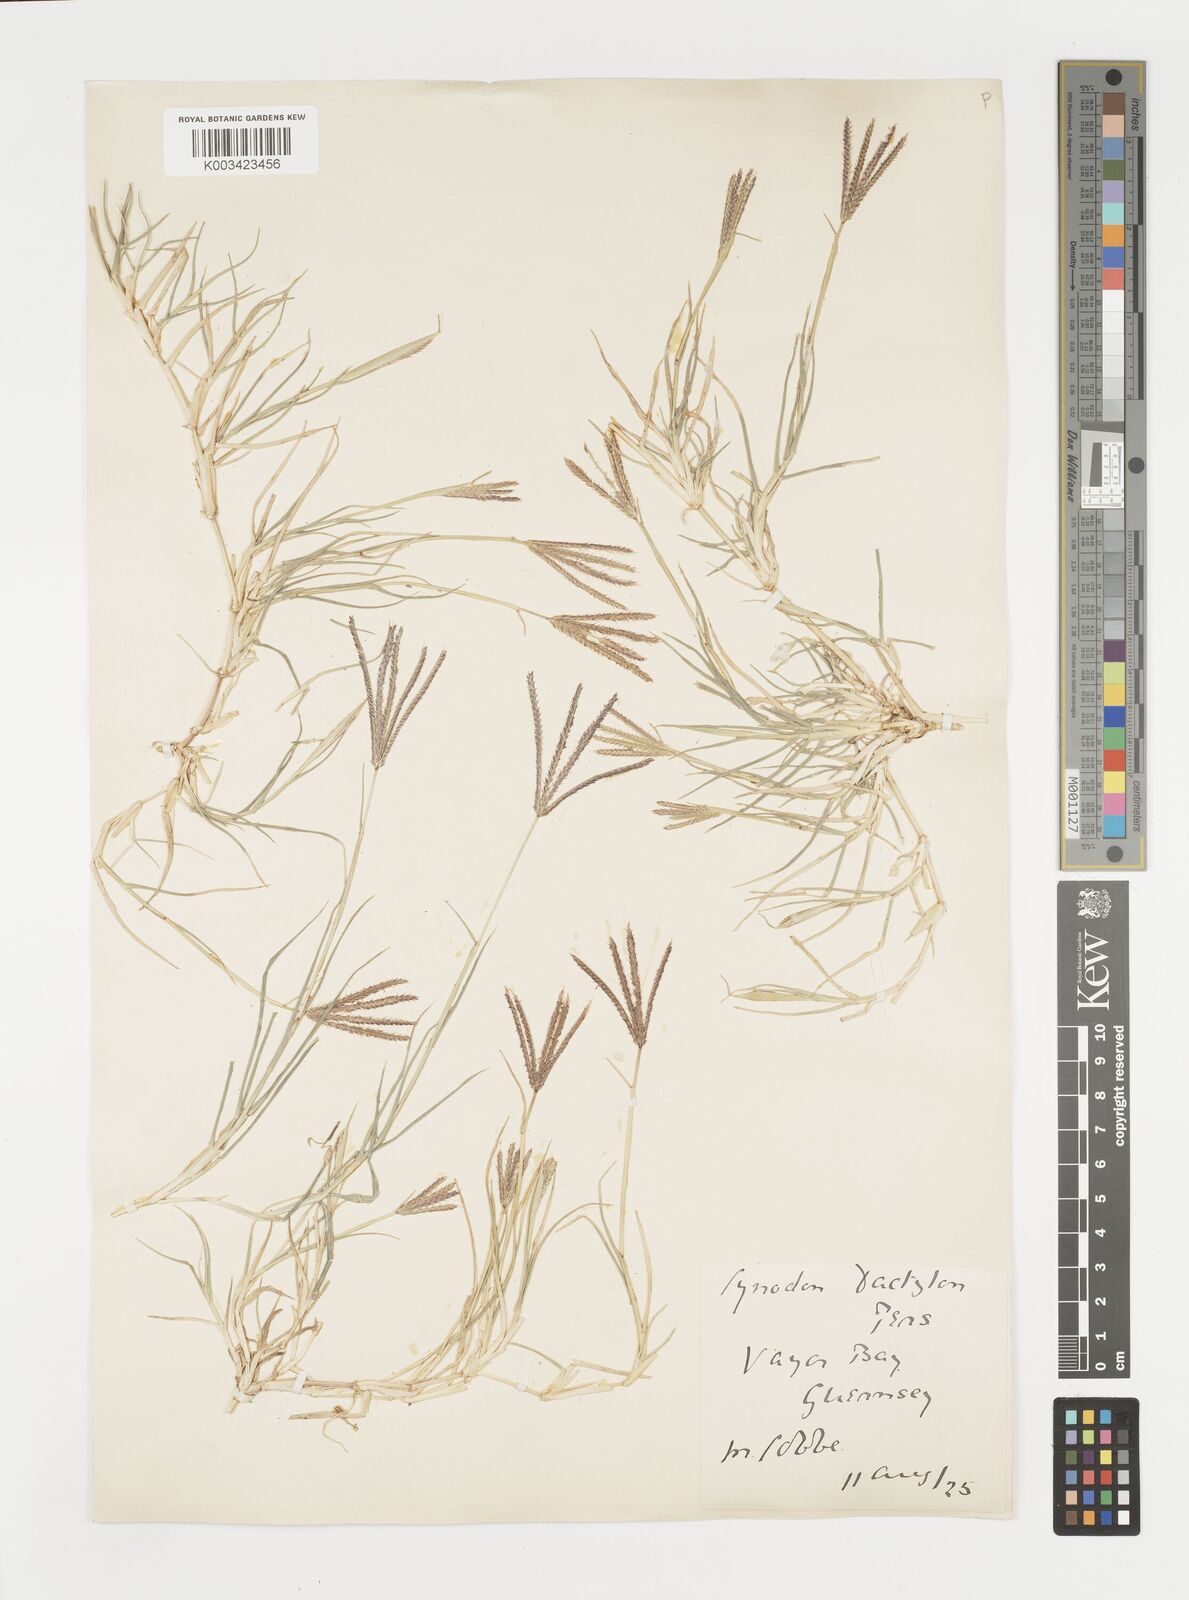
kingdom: Plantae
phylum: Tracheophyta
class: Liliopsida
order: Poales
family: Poaceae
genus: Cynodon
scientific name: Cynodon dactylon
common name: Bermuda grass
